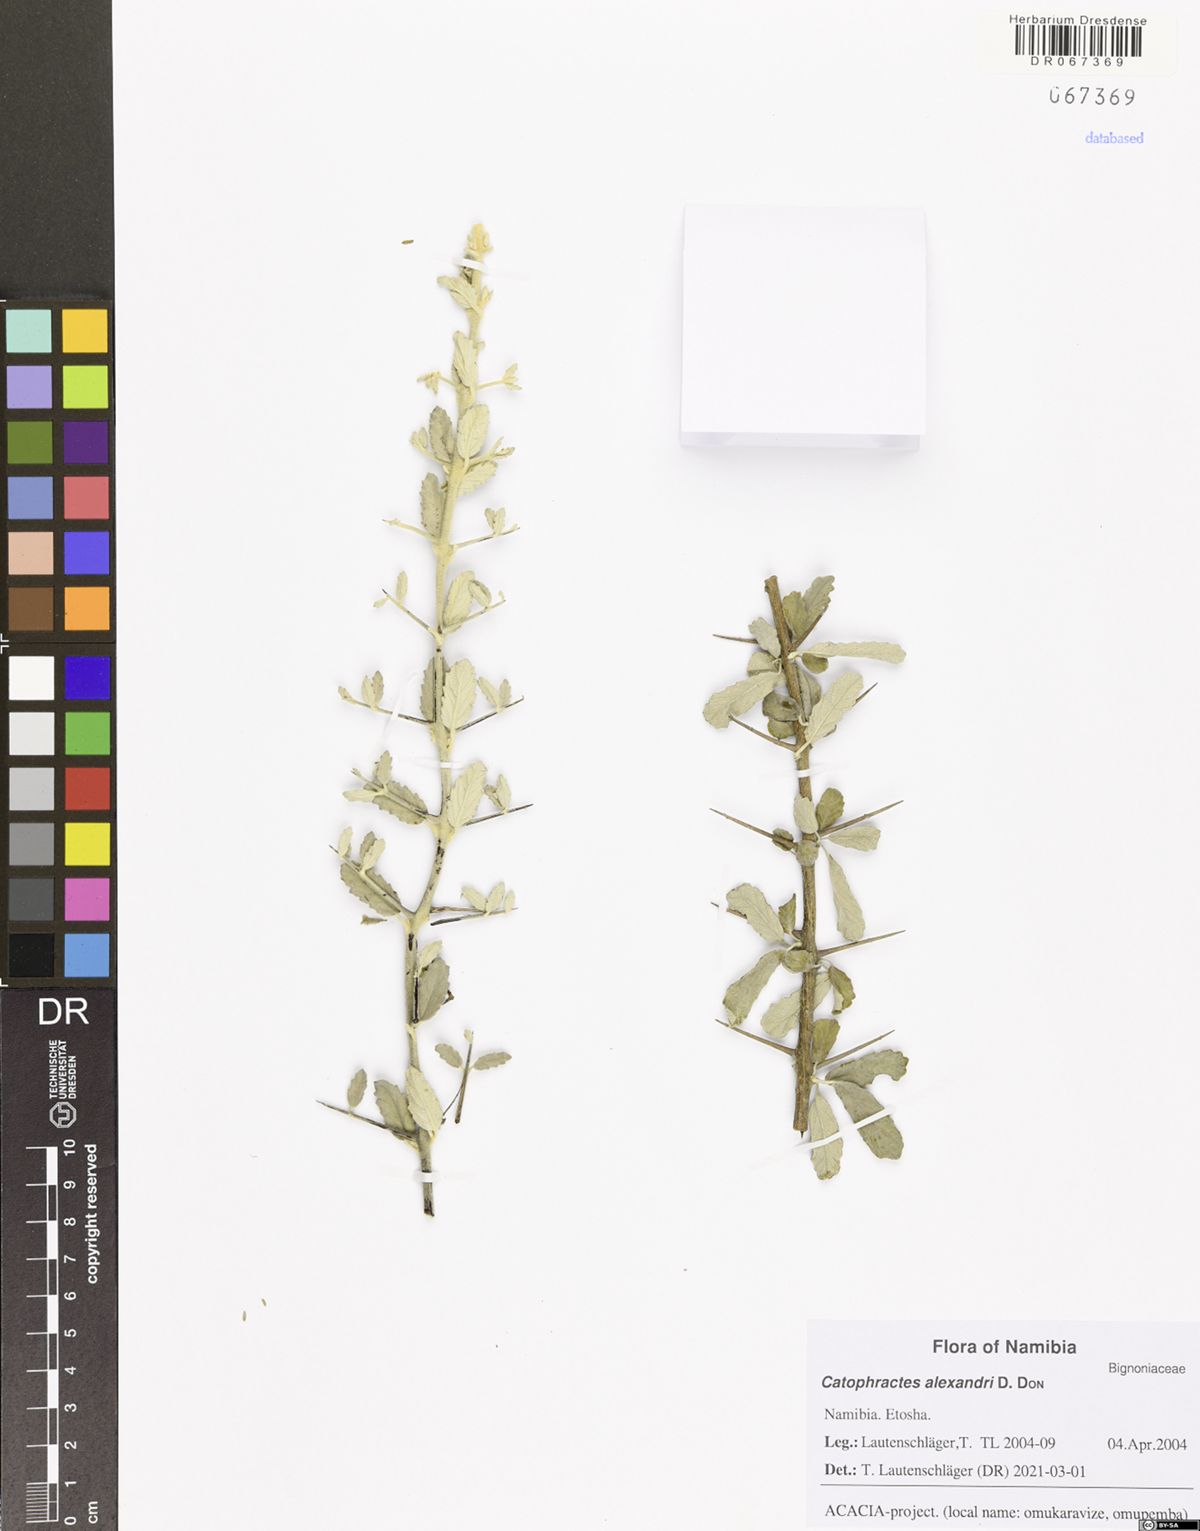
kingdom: Plantae
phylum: Tracheophyta
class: Magnoliopsida
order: Lamiales
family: Bignoniaceae
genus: Catophractes
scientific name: Catophractes alexandri
